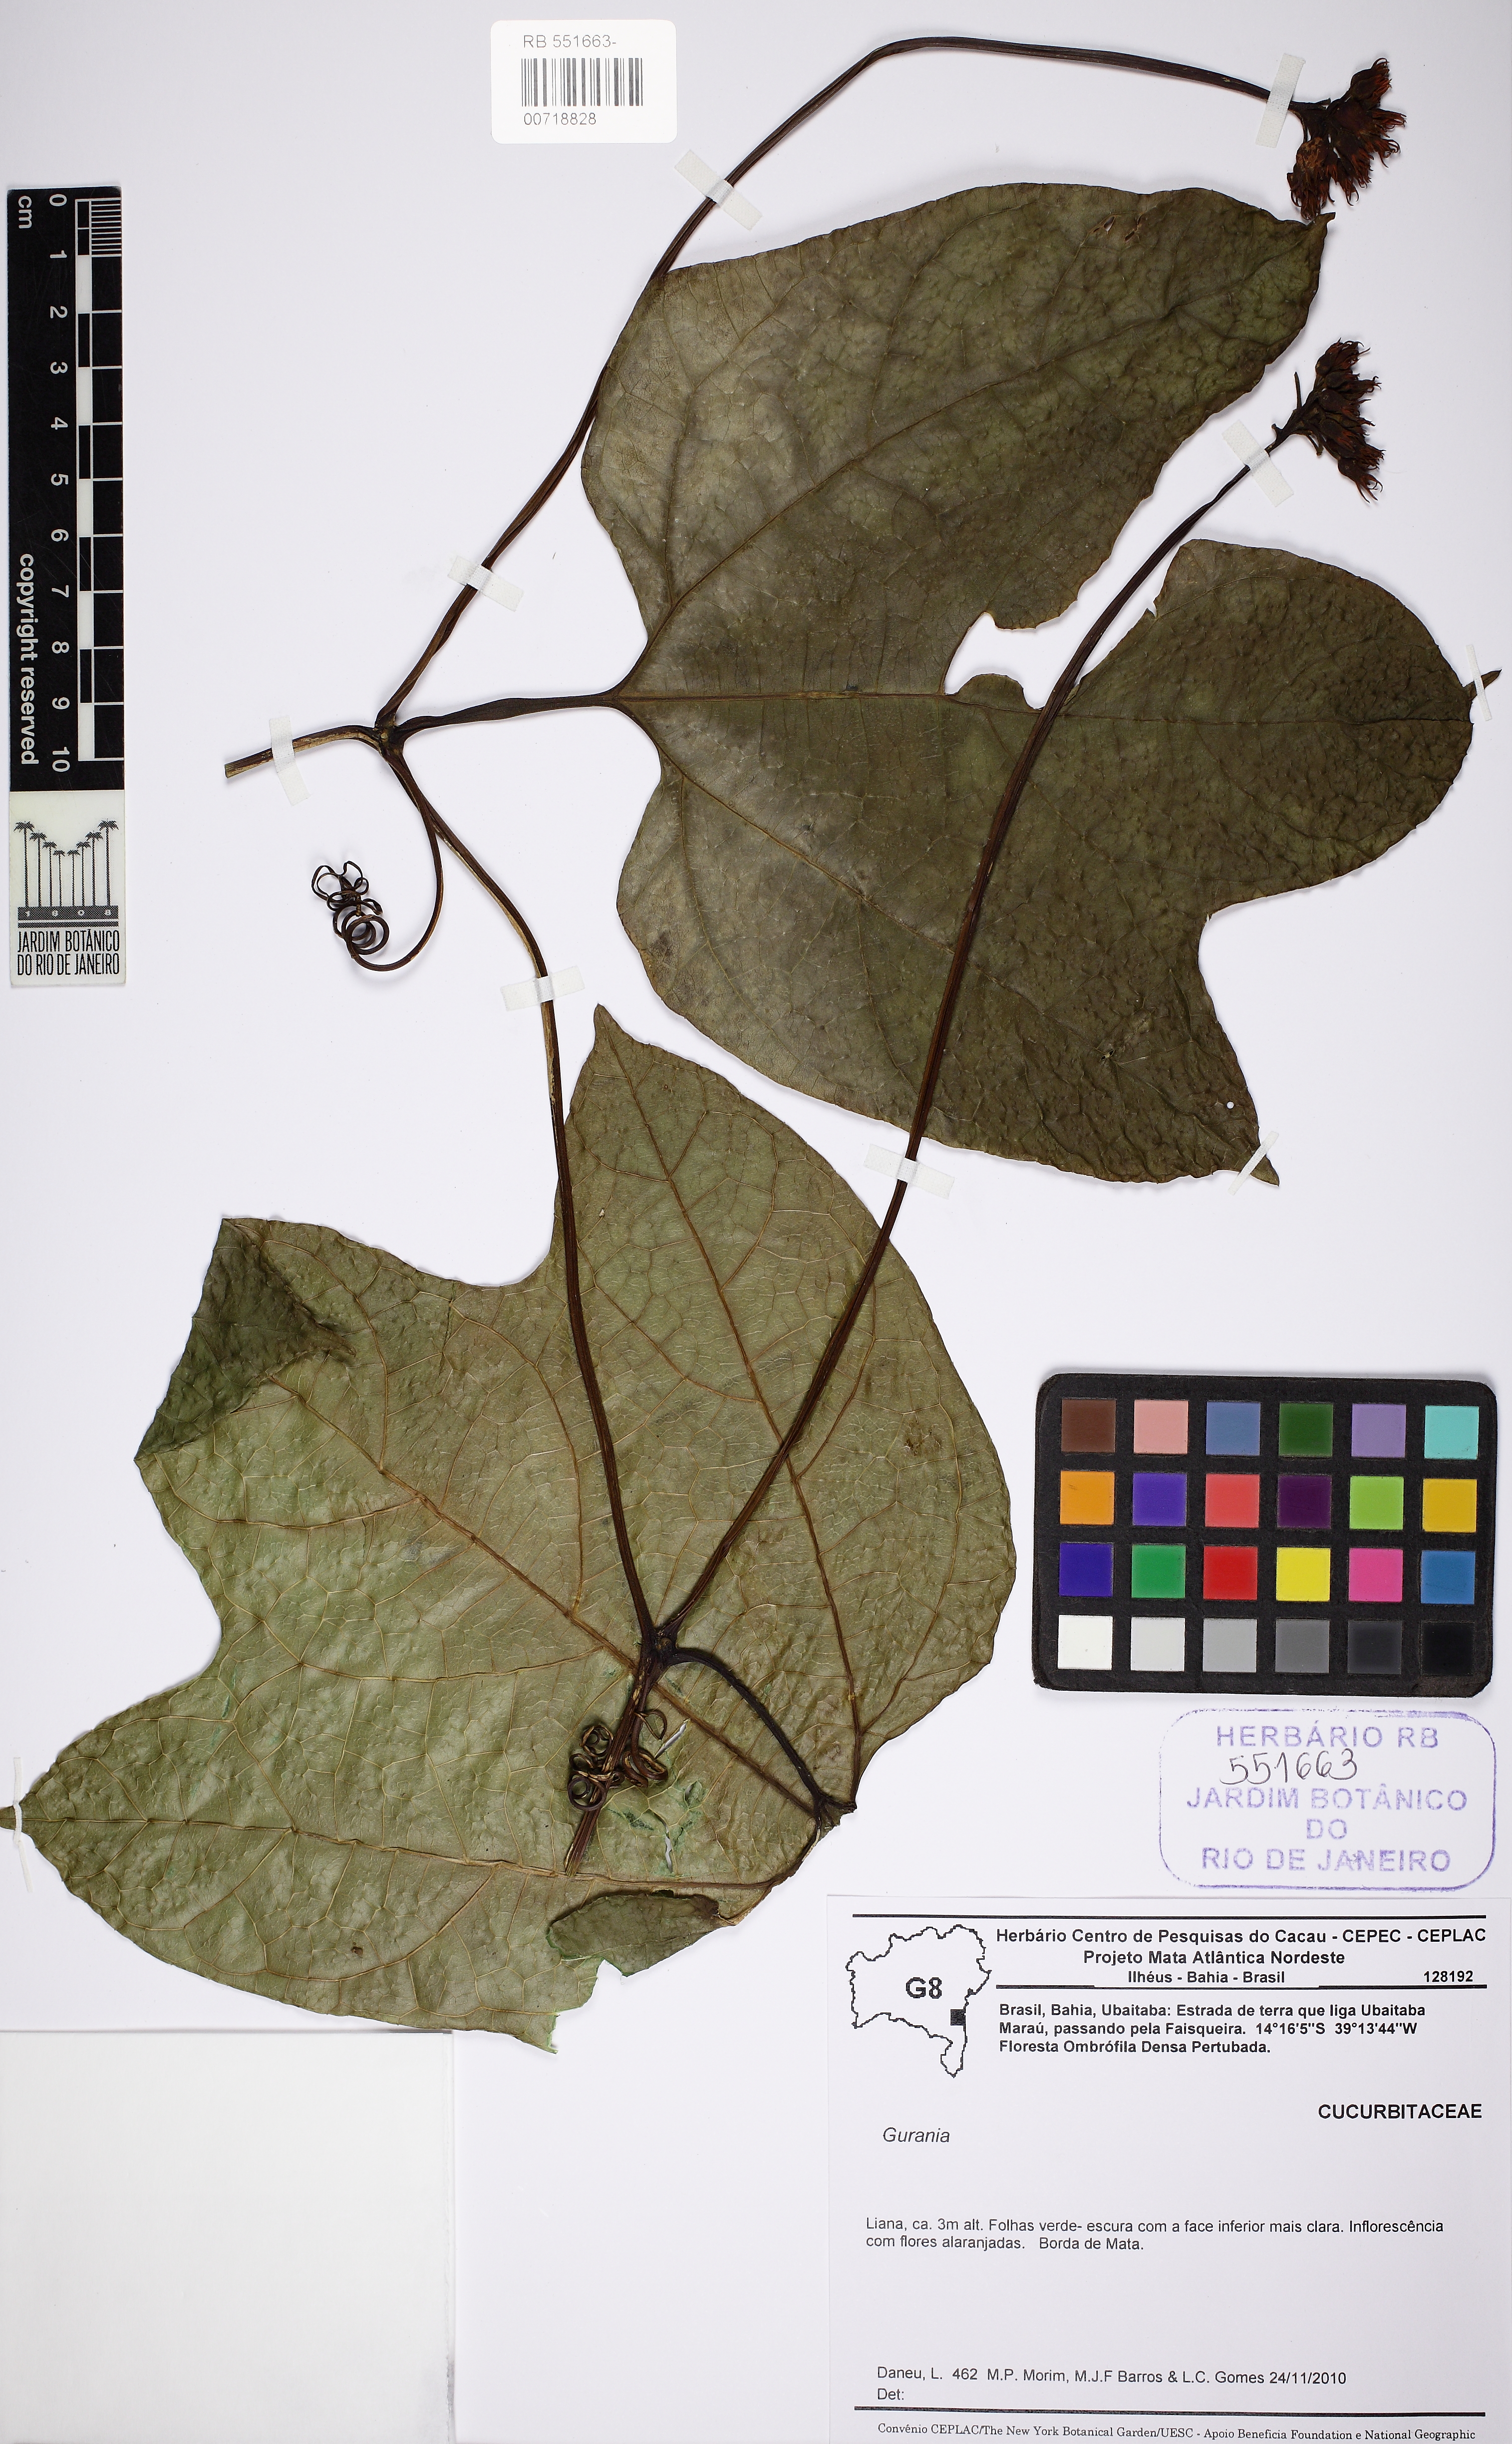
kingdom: Plantae
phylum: Tracheophyta
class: Magnoliopsida
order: Cucurbitales
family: Cucurbitaceae
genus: Gurania
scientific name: Gurania sellowiana
